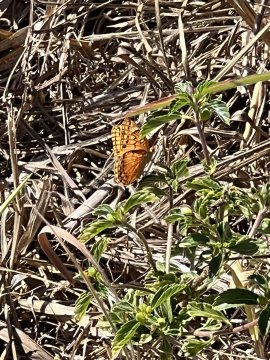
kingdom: Animalia
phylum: Arthropoda
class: Insecta
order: Lepidoptera
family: Nymphalidae
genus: Euptoieta
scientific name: Euptoieta hegesia
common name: Mexican Fritillary
